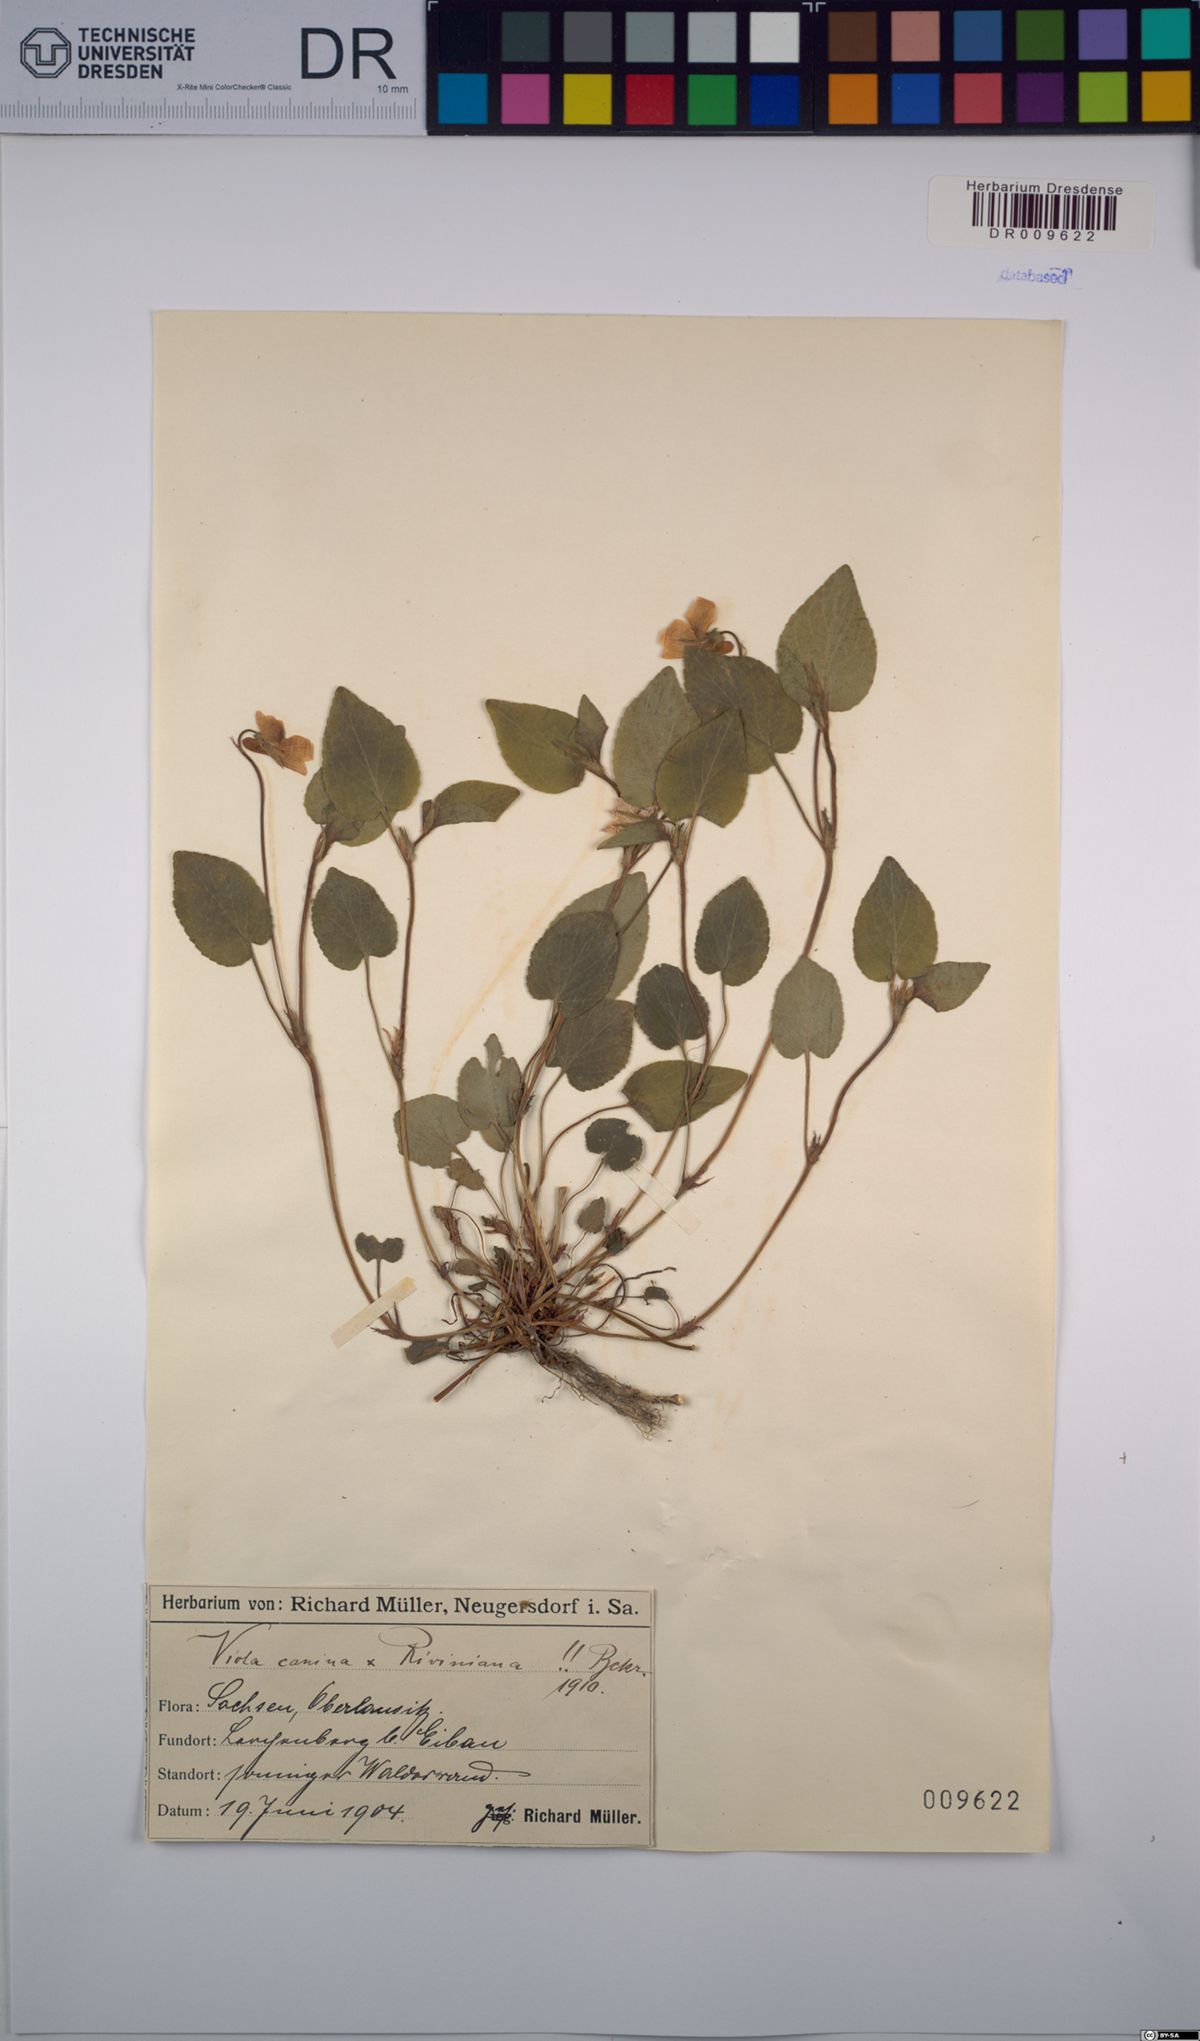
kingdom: Plantae
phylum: Tracheophyta
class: Magnoliopsida
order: Malpighiales
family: Violaceae
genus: Viola
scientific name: Viola riviniana
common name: Common dog-violet
